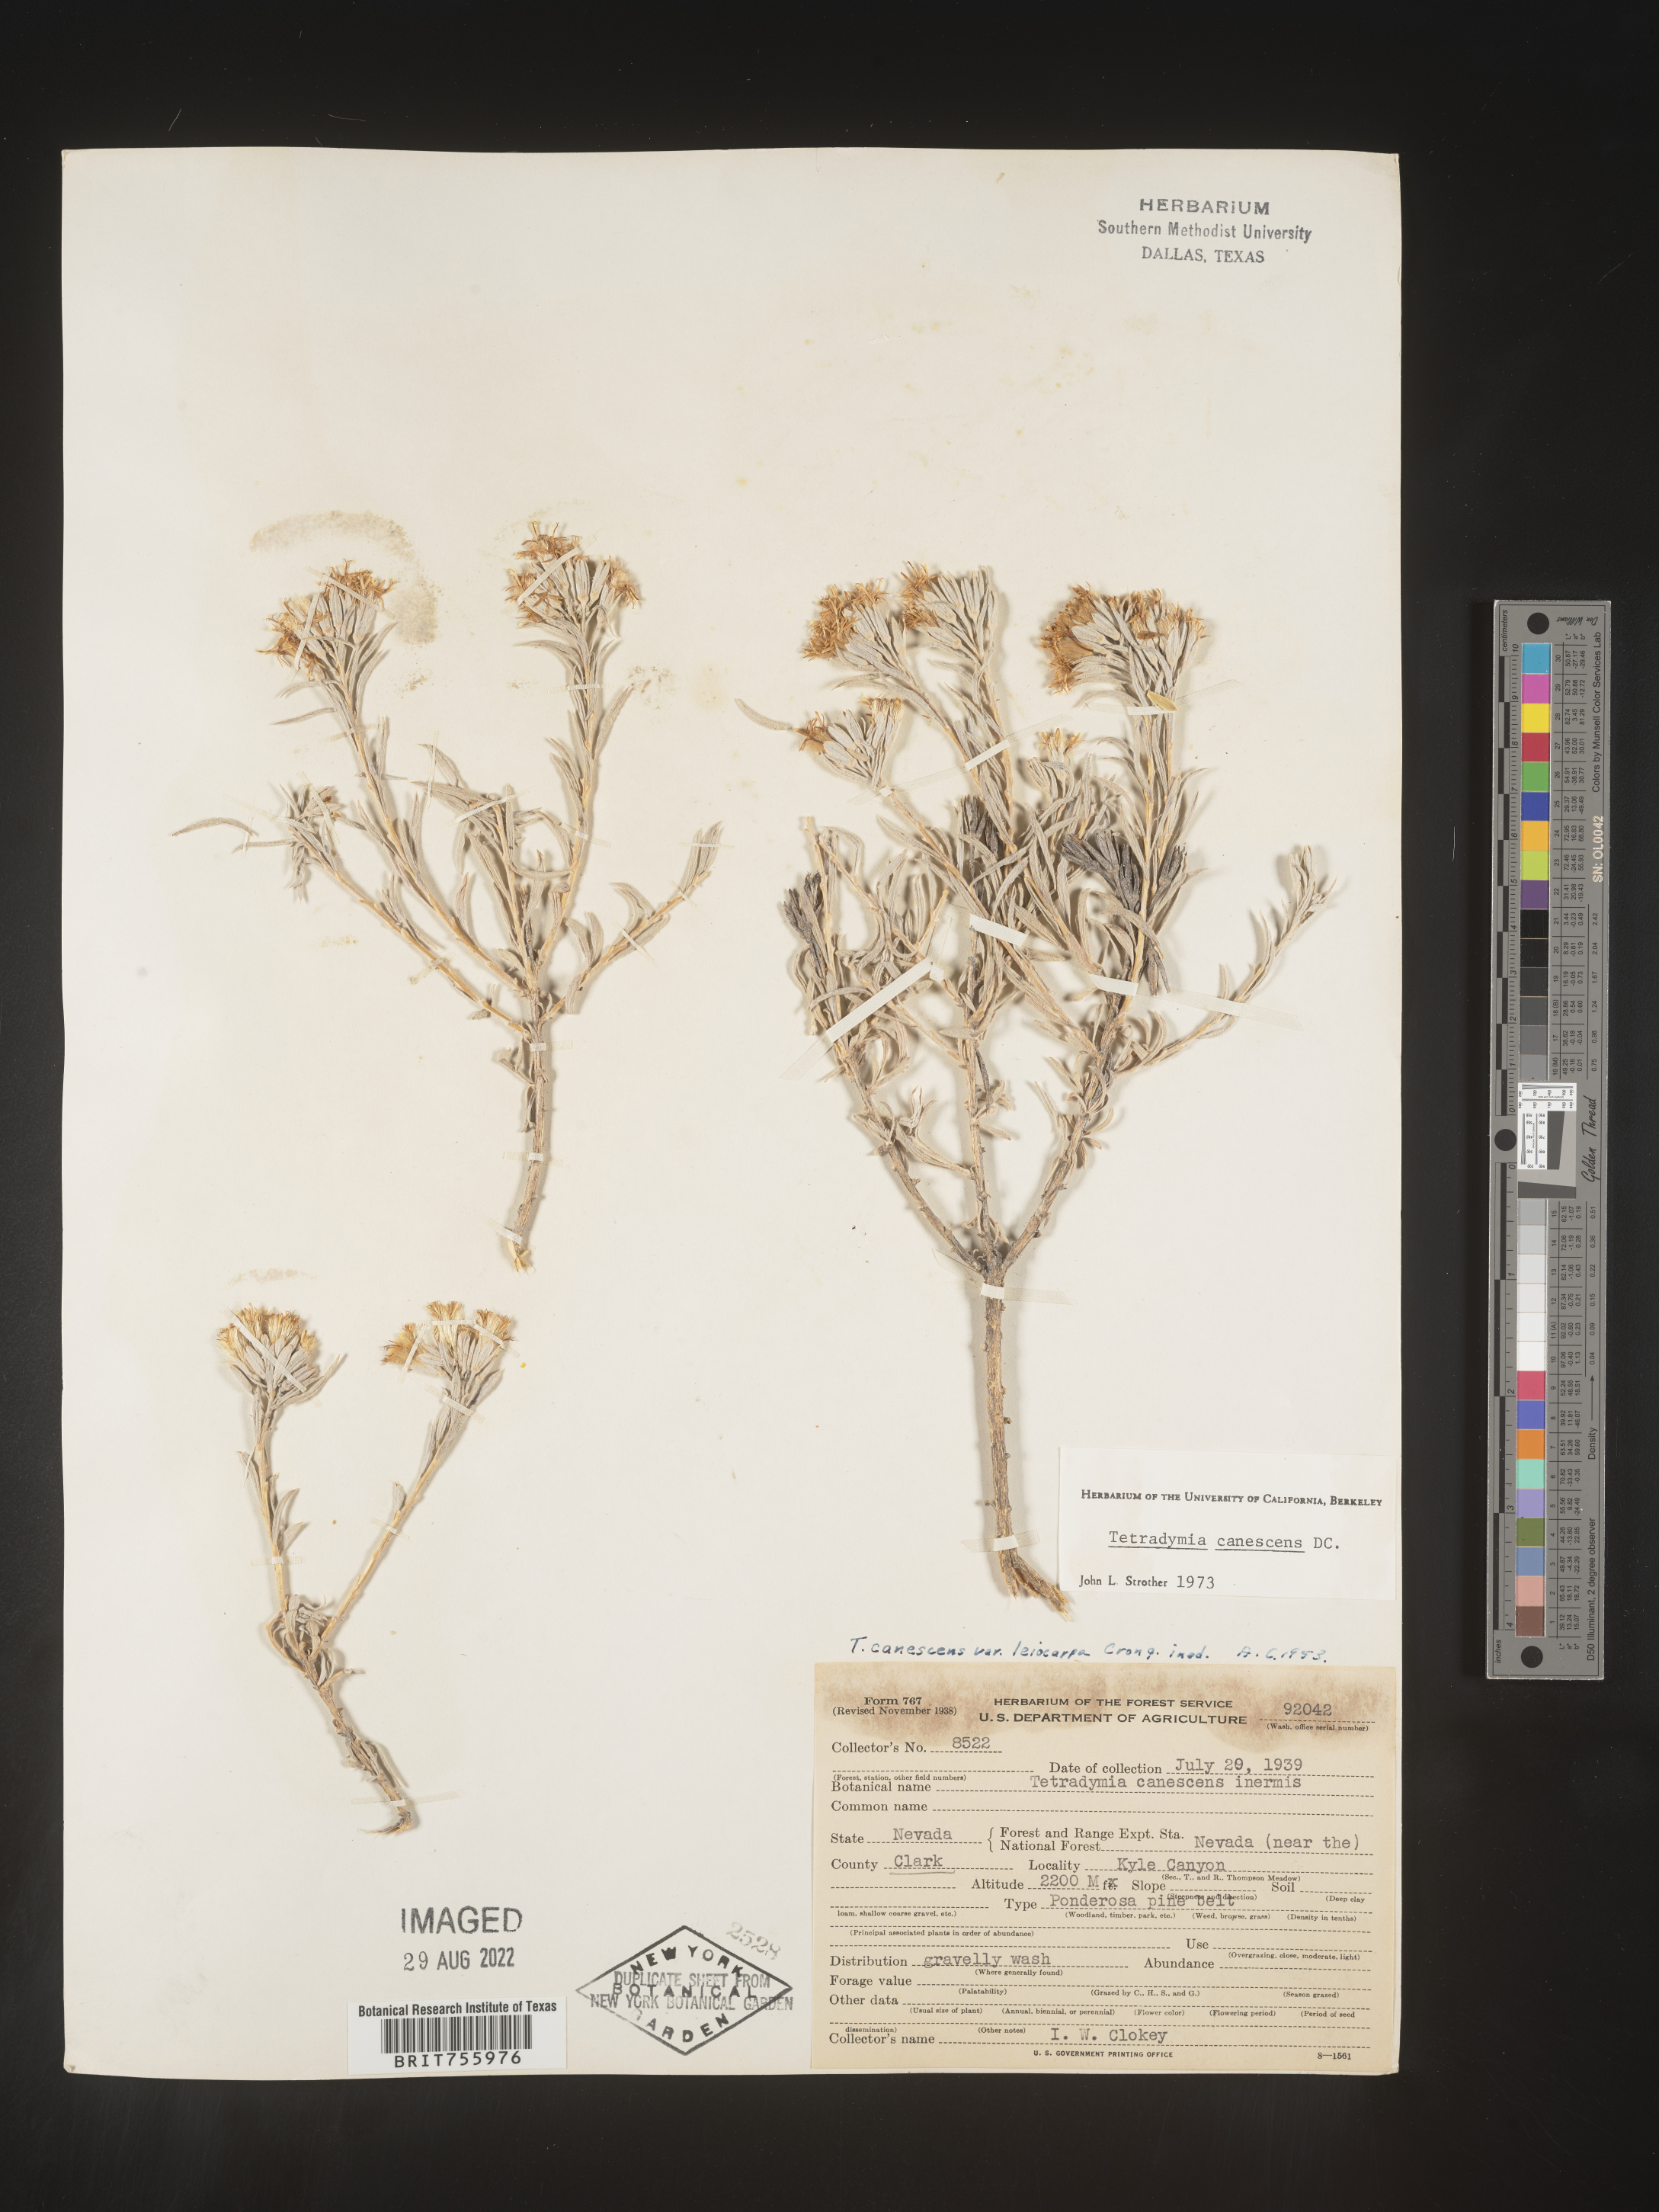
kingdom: Plantae
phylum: Tracheophyta
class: Magnoliopsida
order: Asterales
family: Asteraceae
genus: Tetradymia
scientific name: Tetradymia canescens
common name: Spineless horsebrush
